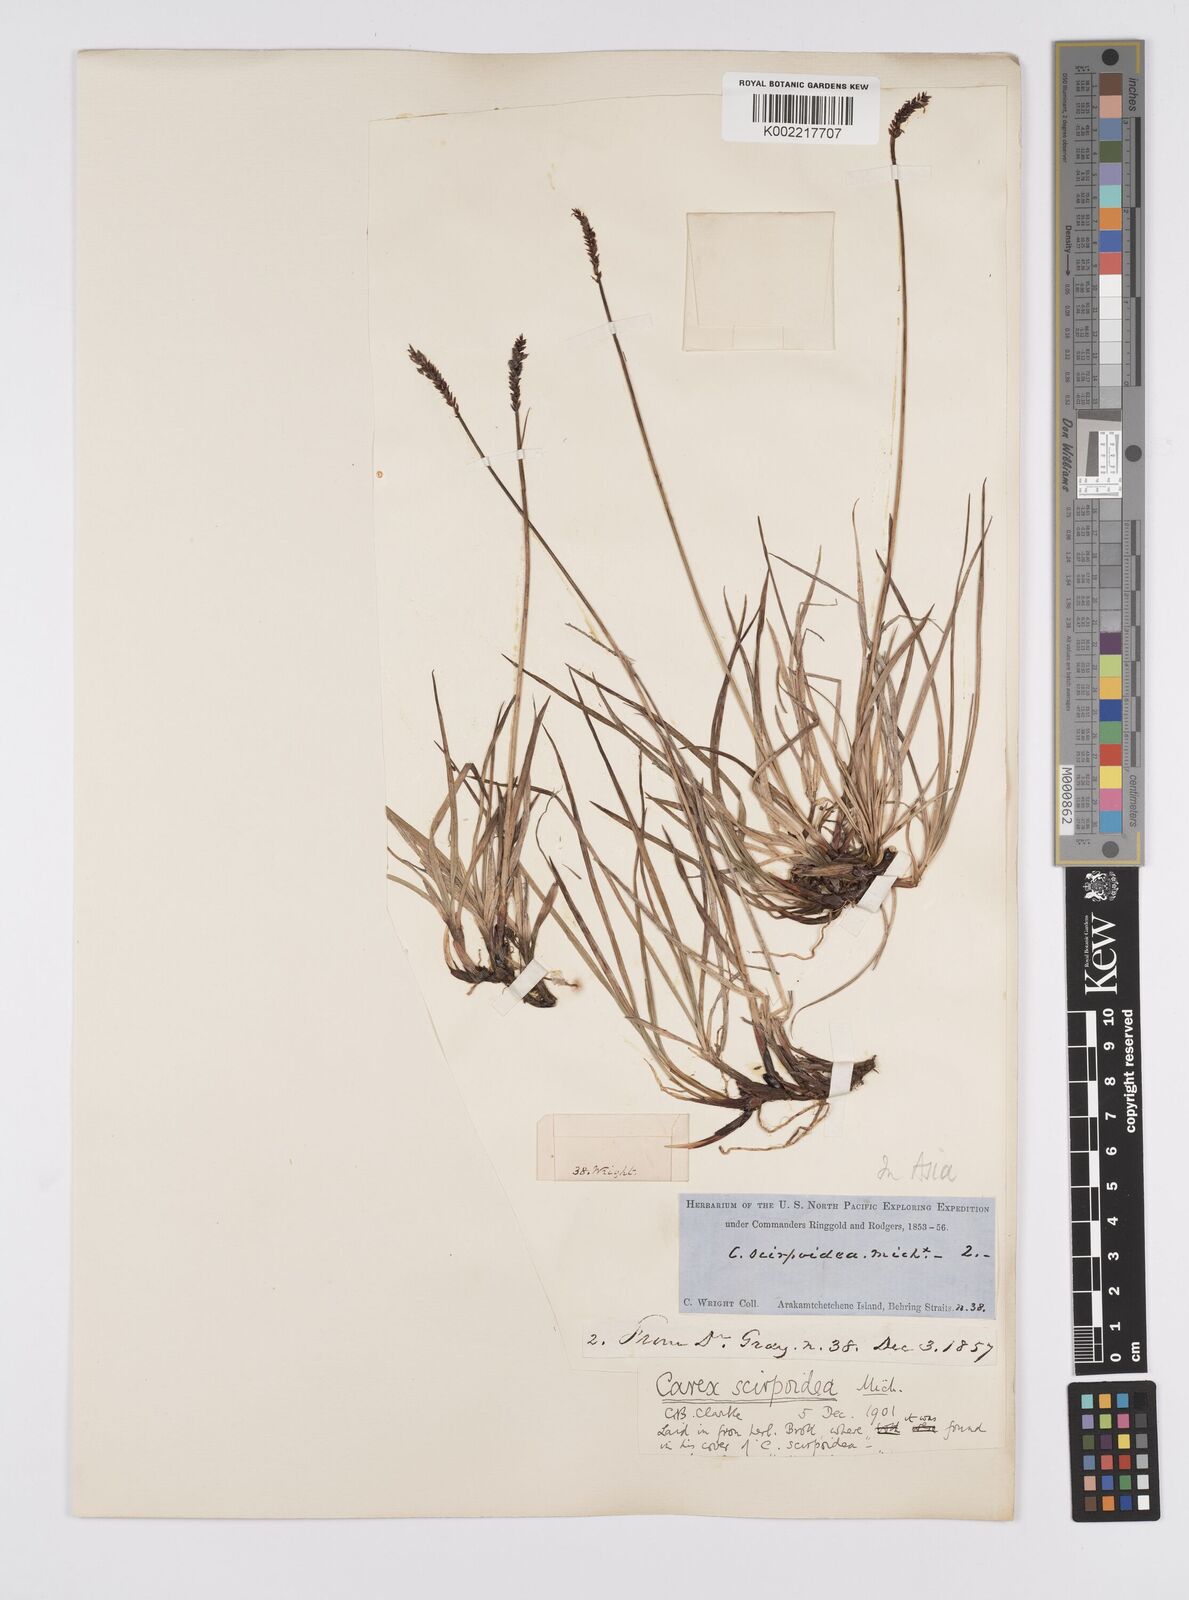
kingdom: Plantae
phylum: Tracheophyta
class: Liliopsida
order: Poales
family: Cyperaceae
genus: Carex
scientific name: Carex scirpoidea
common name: Canada single-spike sedge
